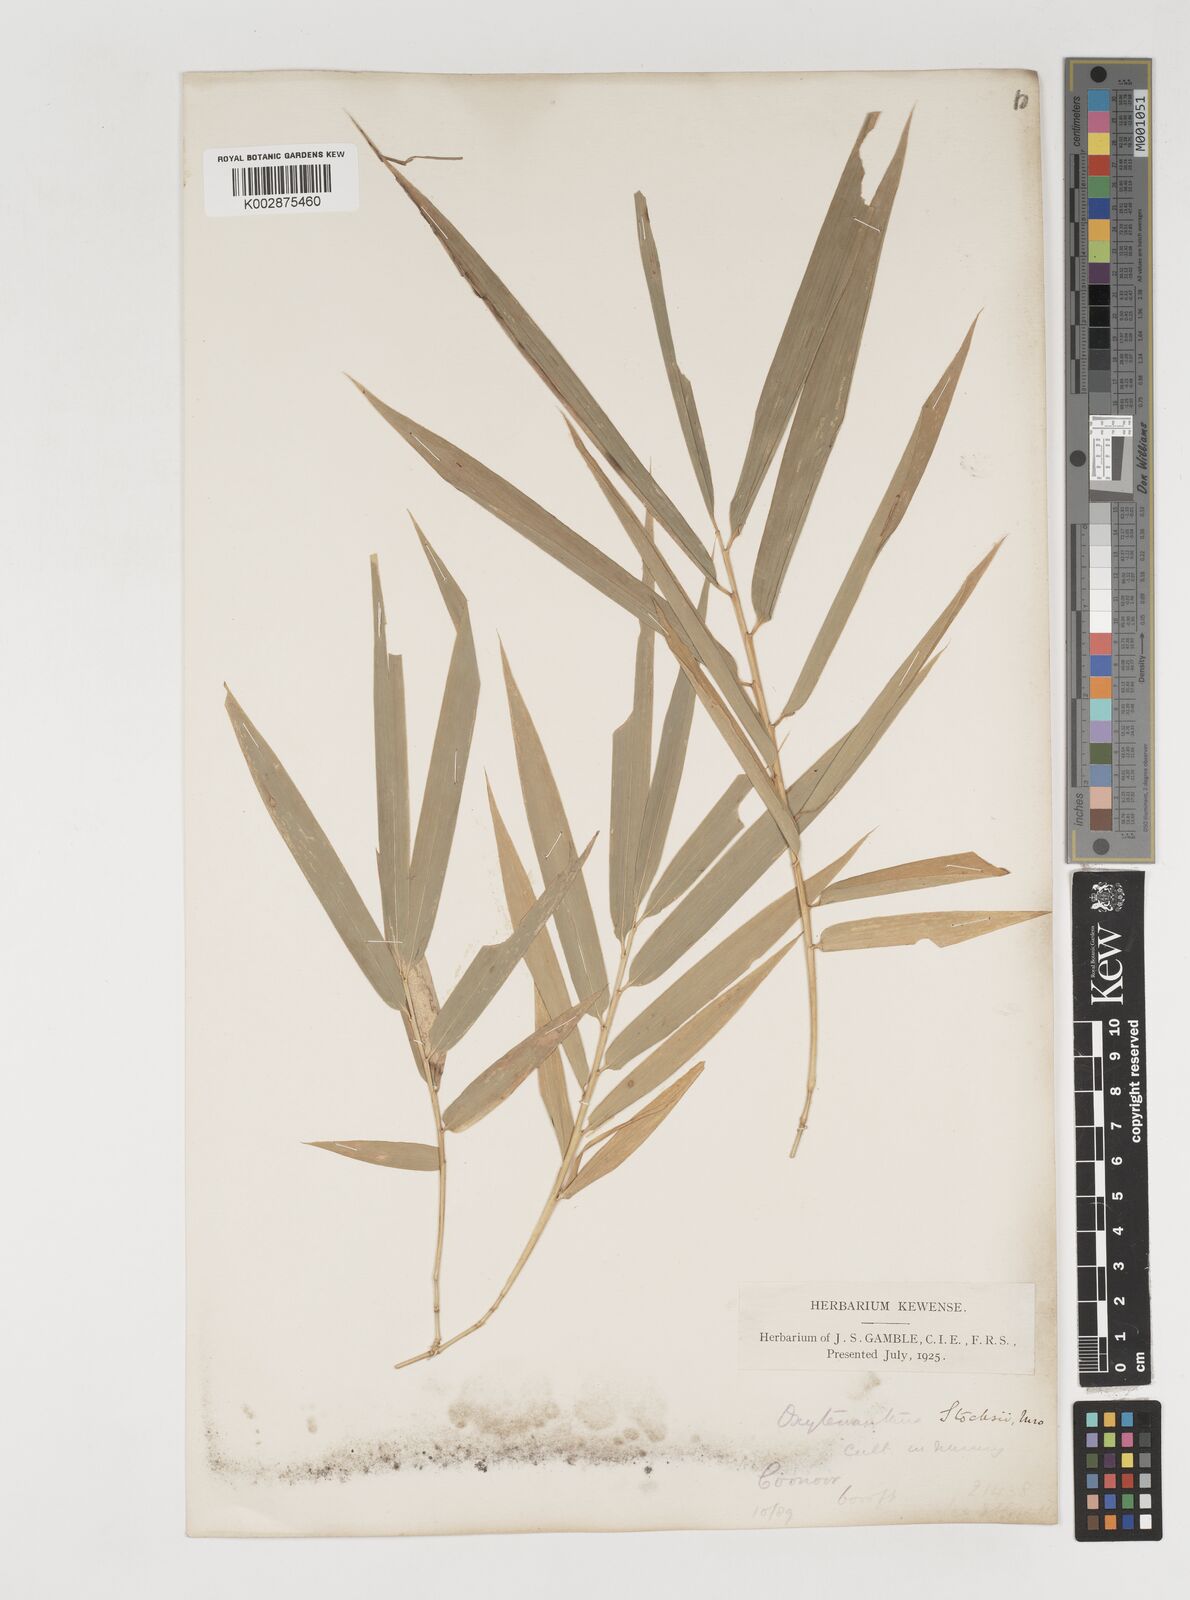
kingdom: Plantae
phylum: Tracheophyta
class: Liliopsida
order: Poales
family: Poaceae
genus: Pseudoxytenanthera
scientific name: Pseudoxytenanthera stocksii
